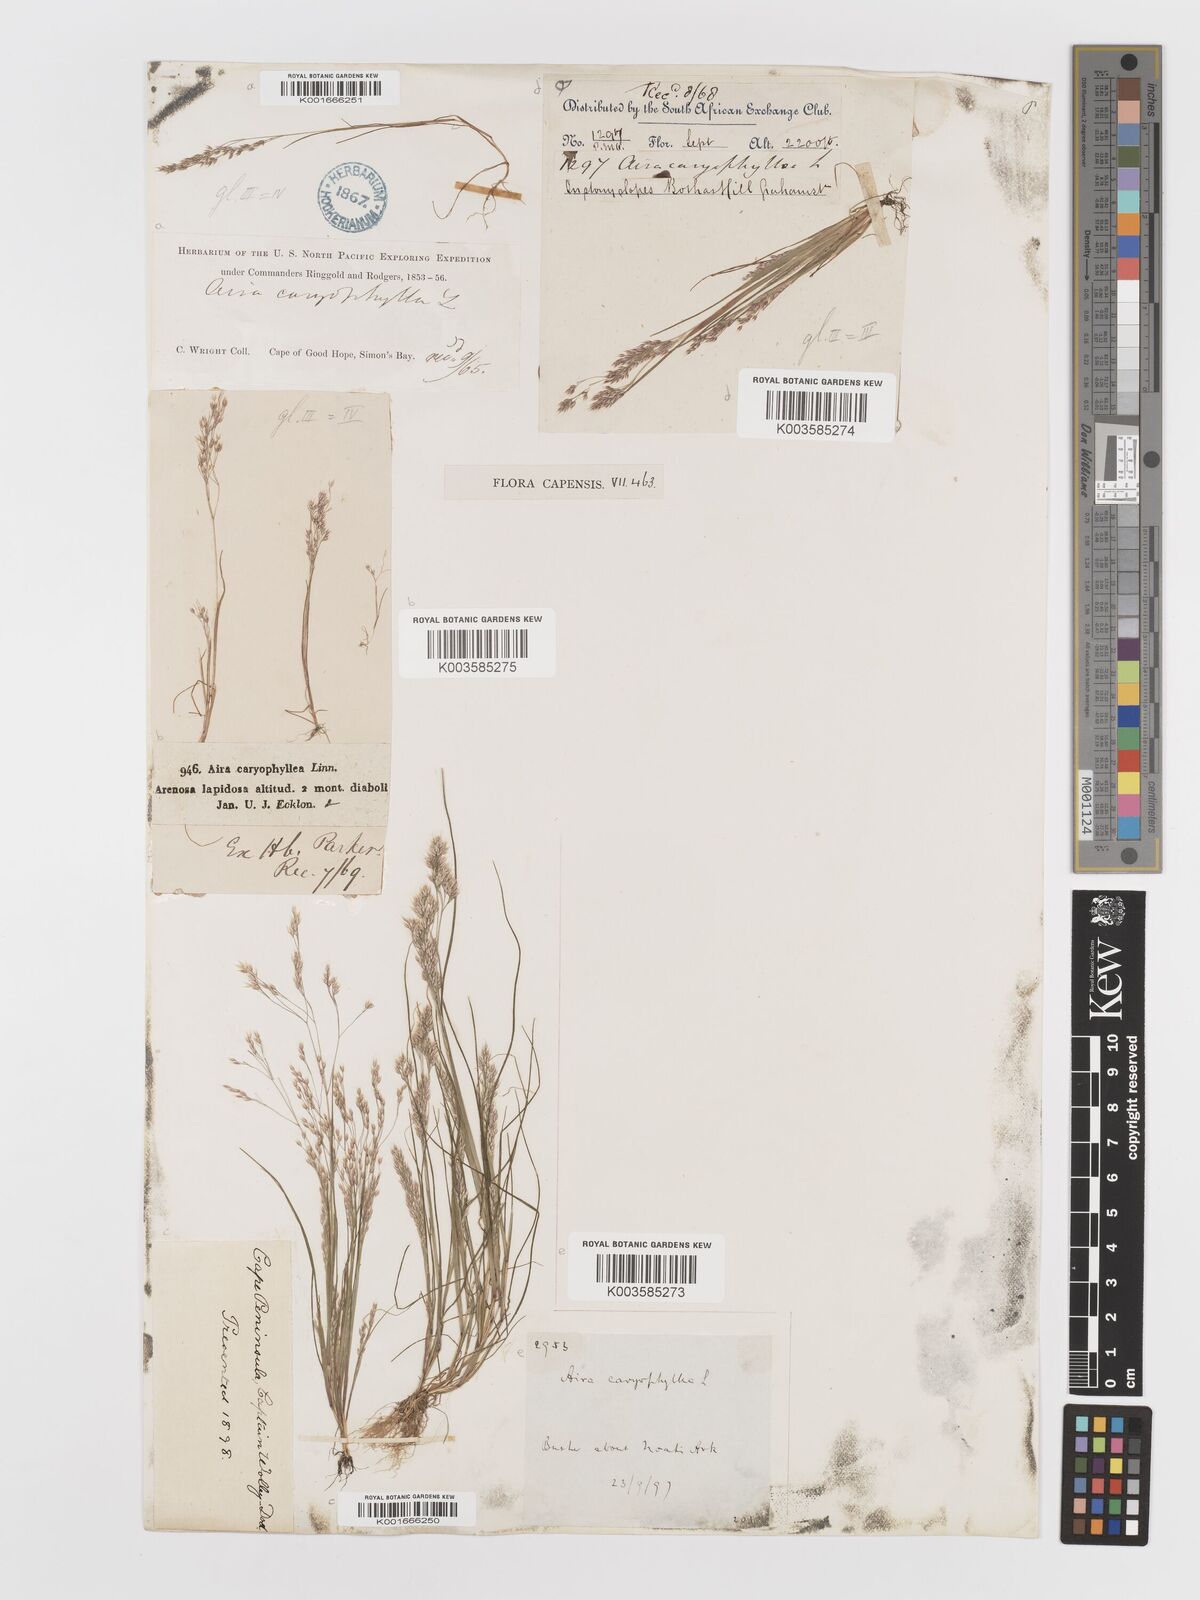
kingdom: Plantae
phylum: Tracheophyta
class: Liliopsida
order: Poales
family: Poaceae
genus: Aira
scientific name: Aira cupaniana
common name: Silver hairgrass
